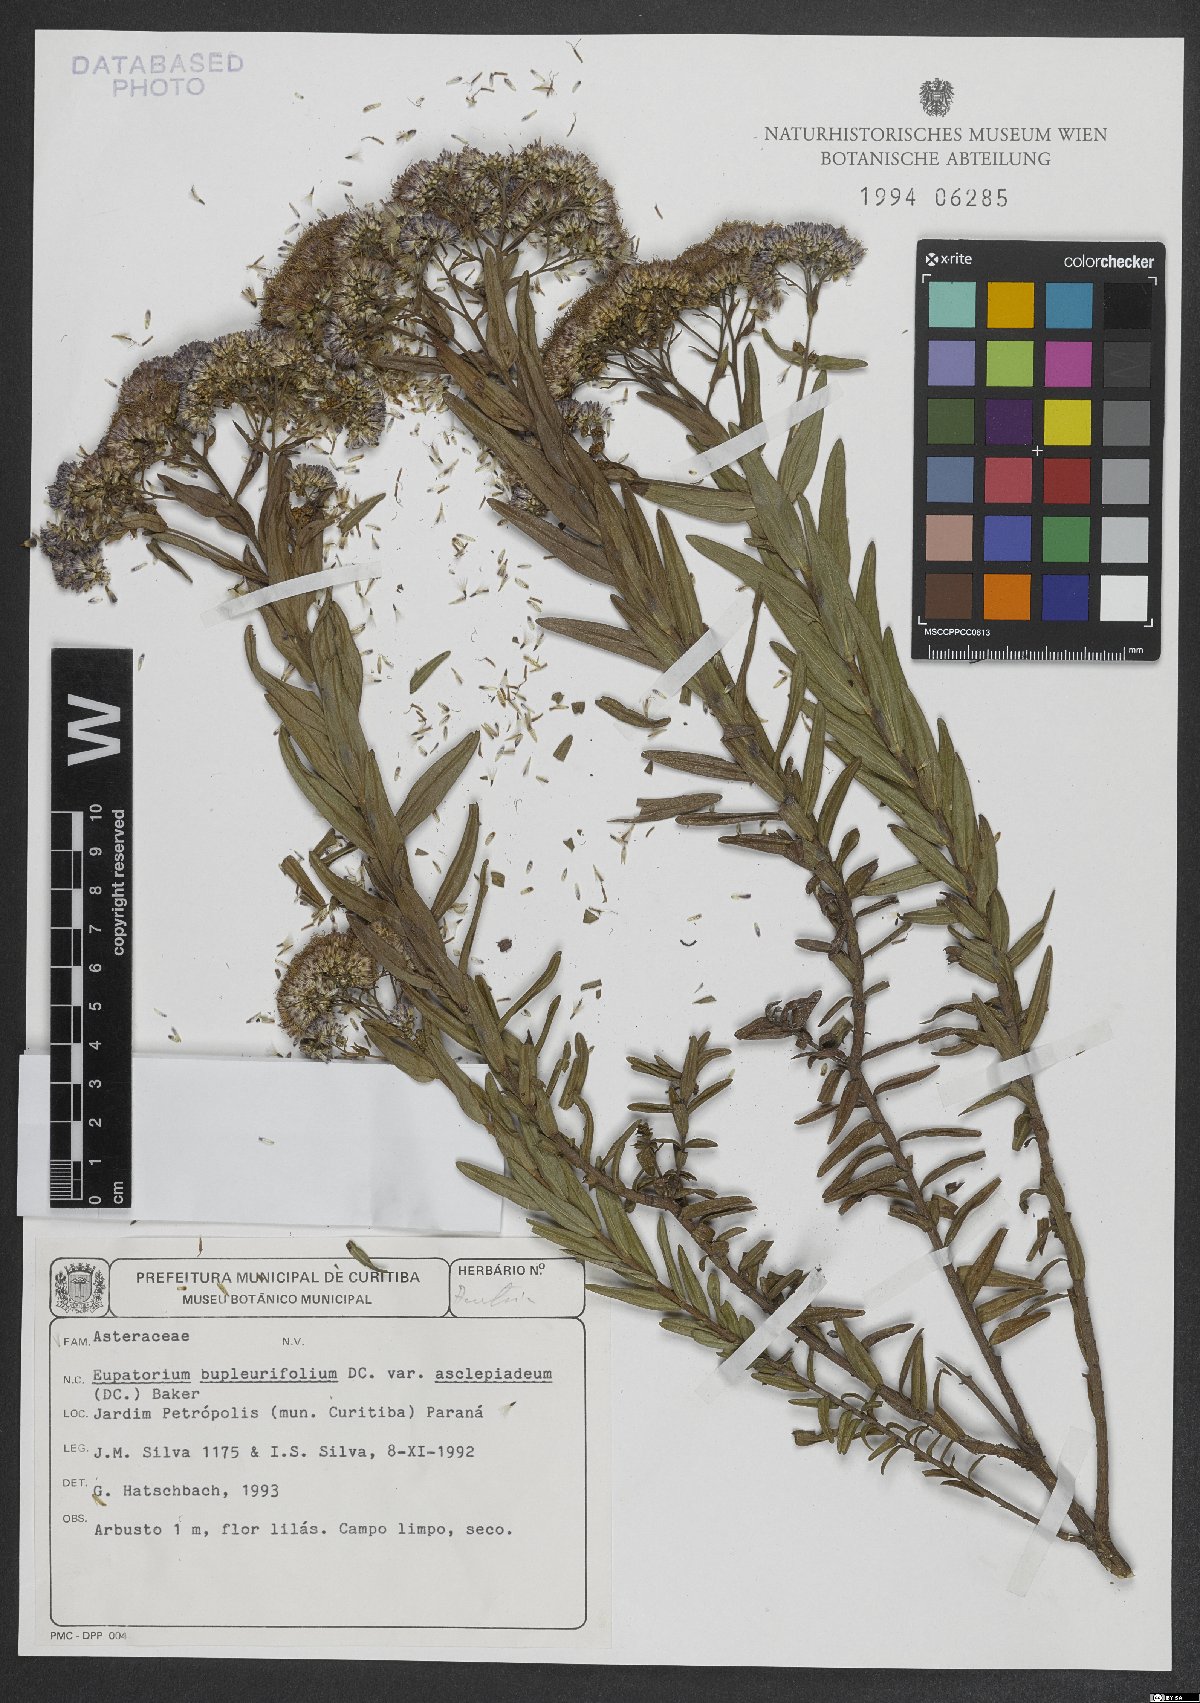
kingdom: Plantae
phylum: Tracheophyta
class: Magnoliopsida
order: Asterales
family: Asteraceae
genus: Campovassouria
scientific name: Campovassouria cruciata
